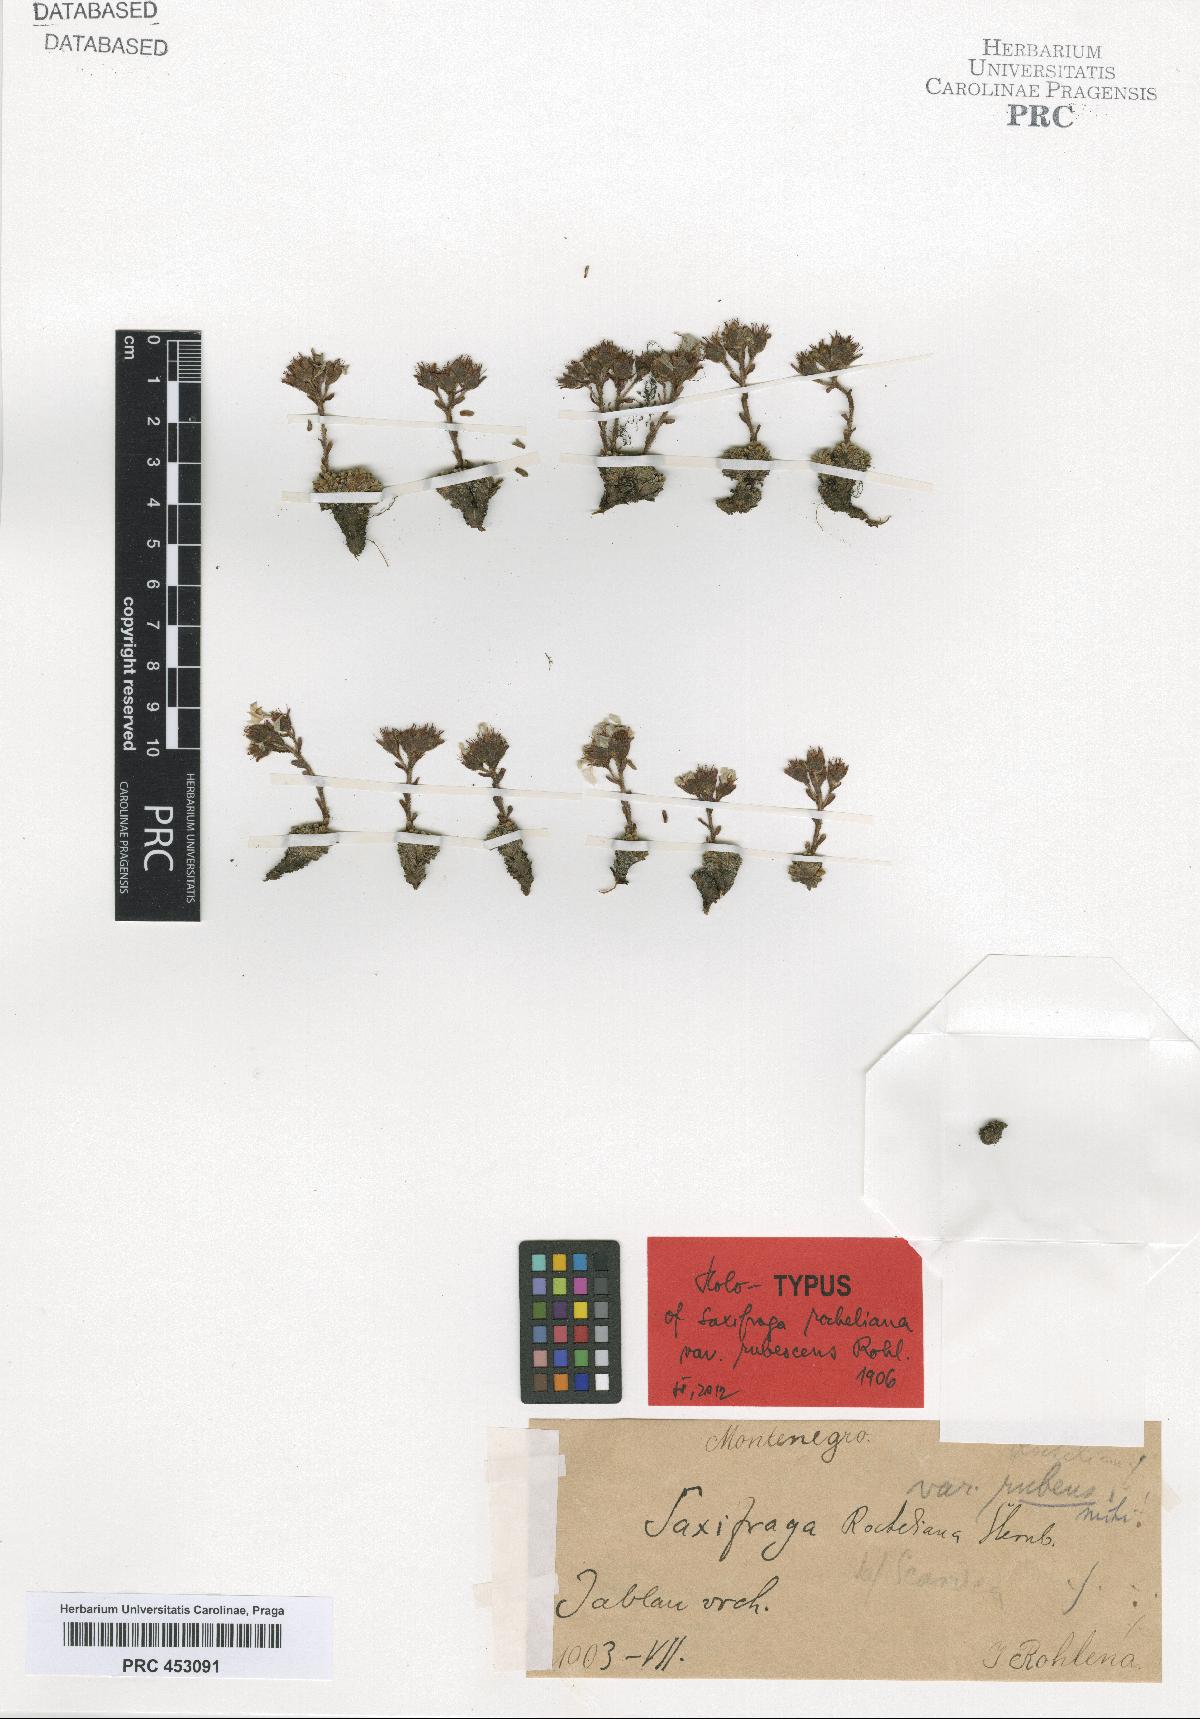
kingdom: Plantae
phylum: Tracheophyta
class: Magnoliopsida
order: Saxifragales
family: Saxifragaceae
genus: Saxifraga
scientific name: Saxifraga marginata
